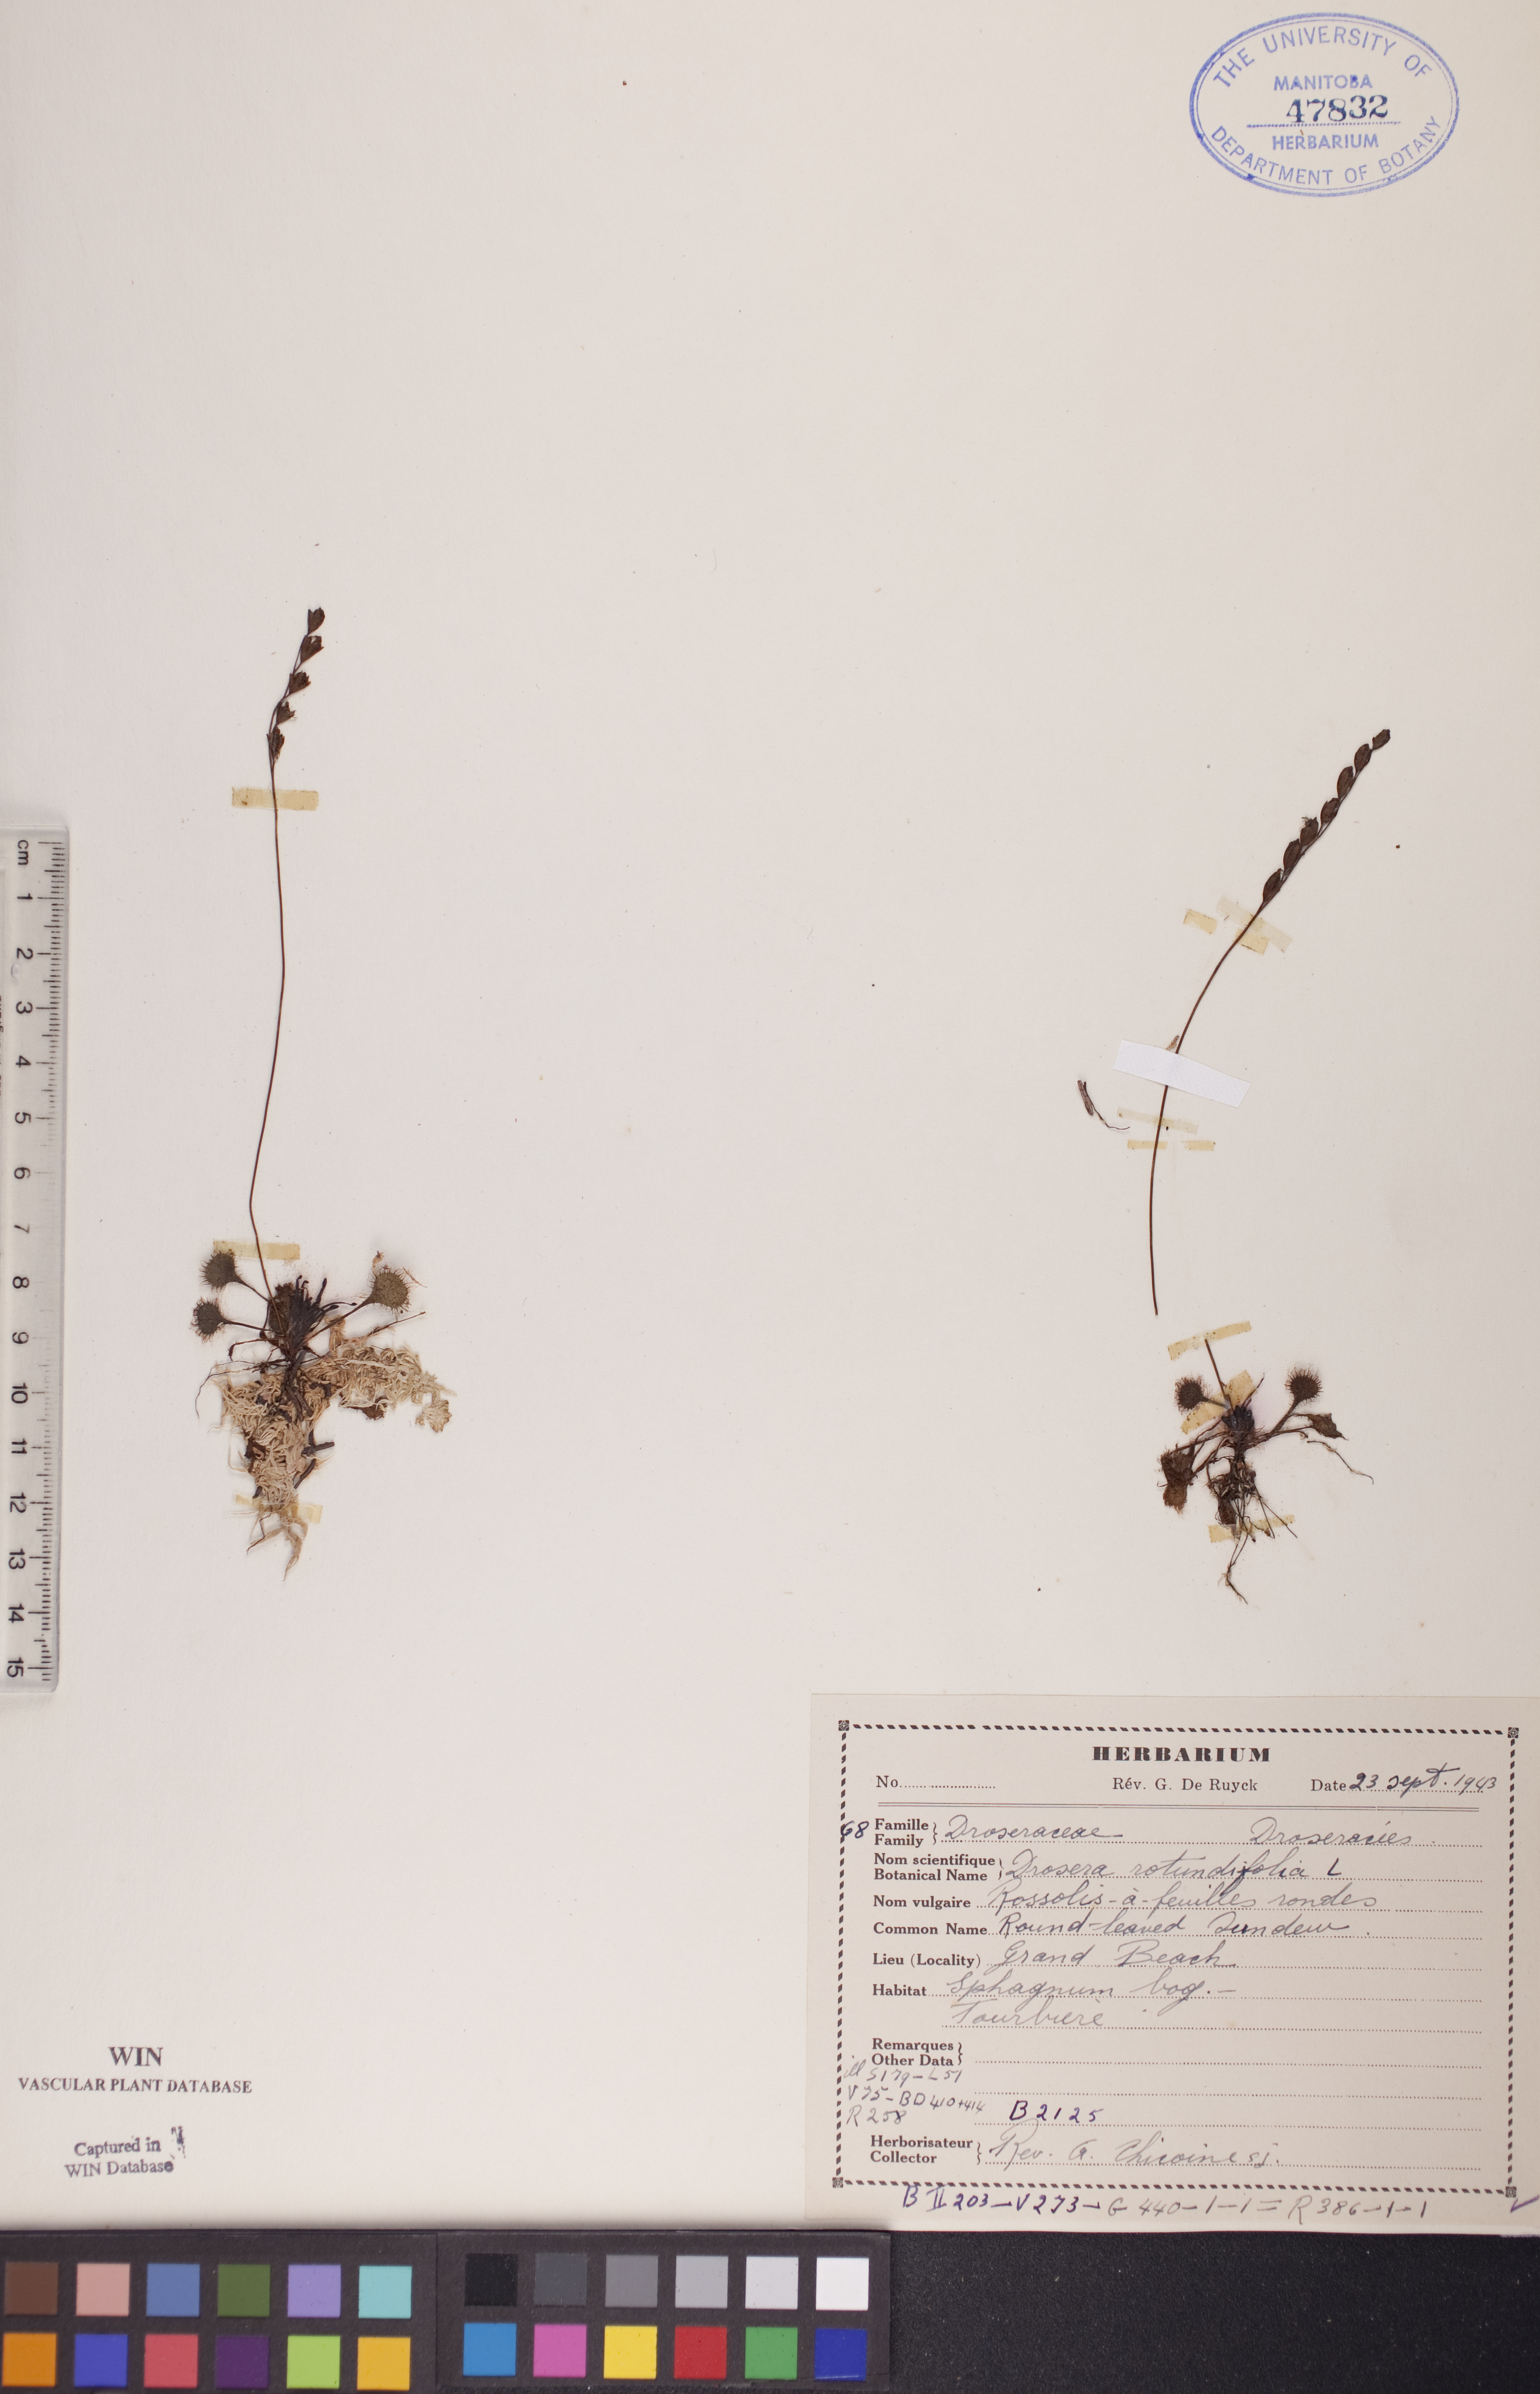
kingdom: Plantae
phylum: Tracheophyta
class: Magnoliopsida
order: Caryophyllales
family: Droseraceae
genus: Drosera
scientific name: Drosera rotundifolia
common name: Round-leaved sundew
